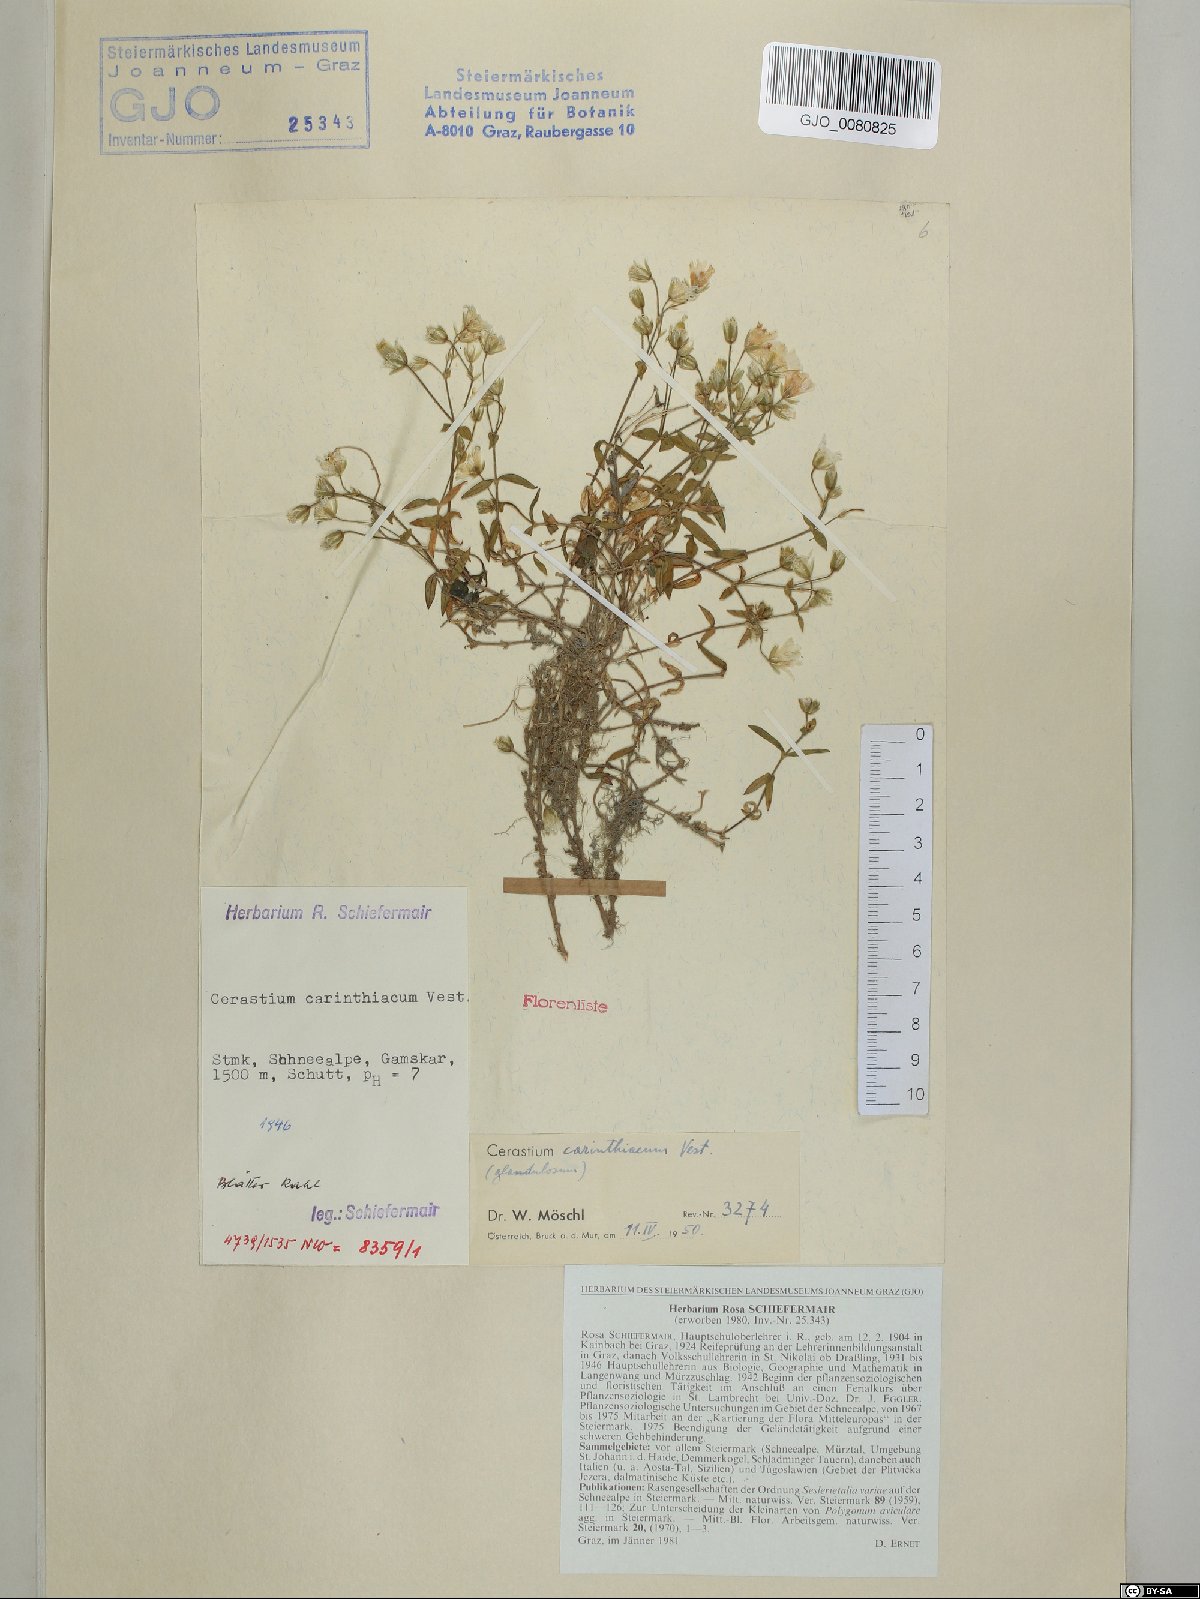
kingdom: Plantae
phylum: Tracheophyta
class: Magnoliopsida
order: Caryophyllales
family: Caryophyllaceae
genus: Cerastium
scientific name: Cerastium carinthiacum
